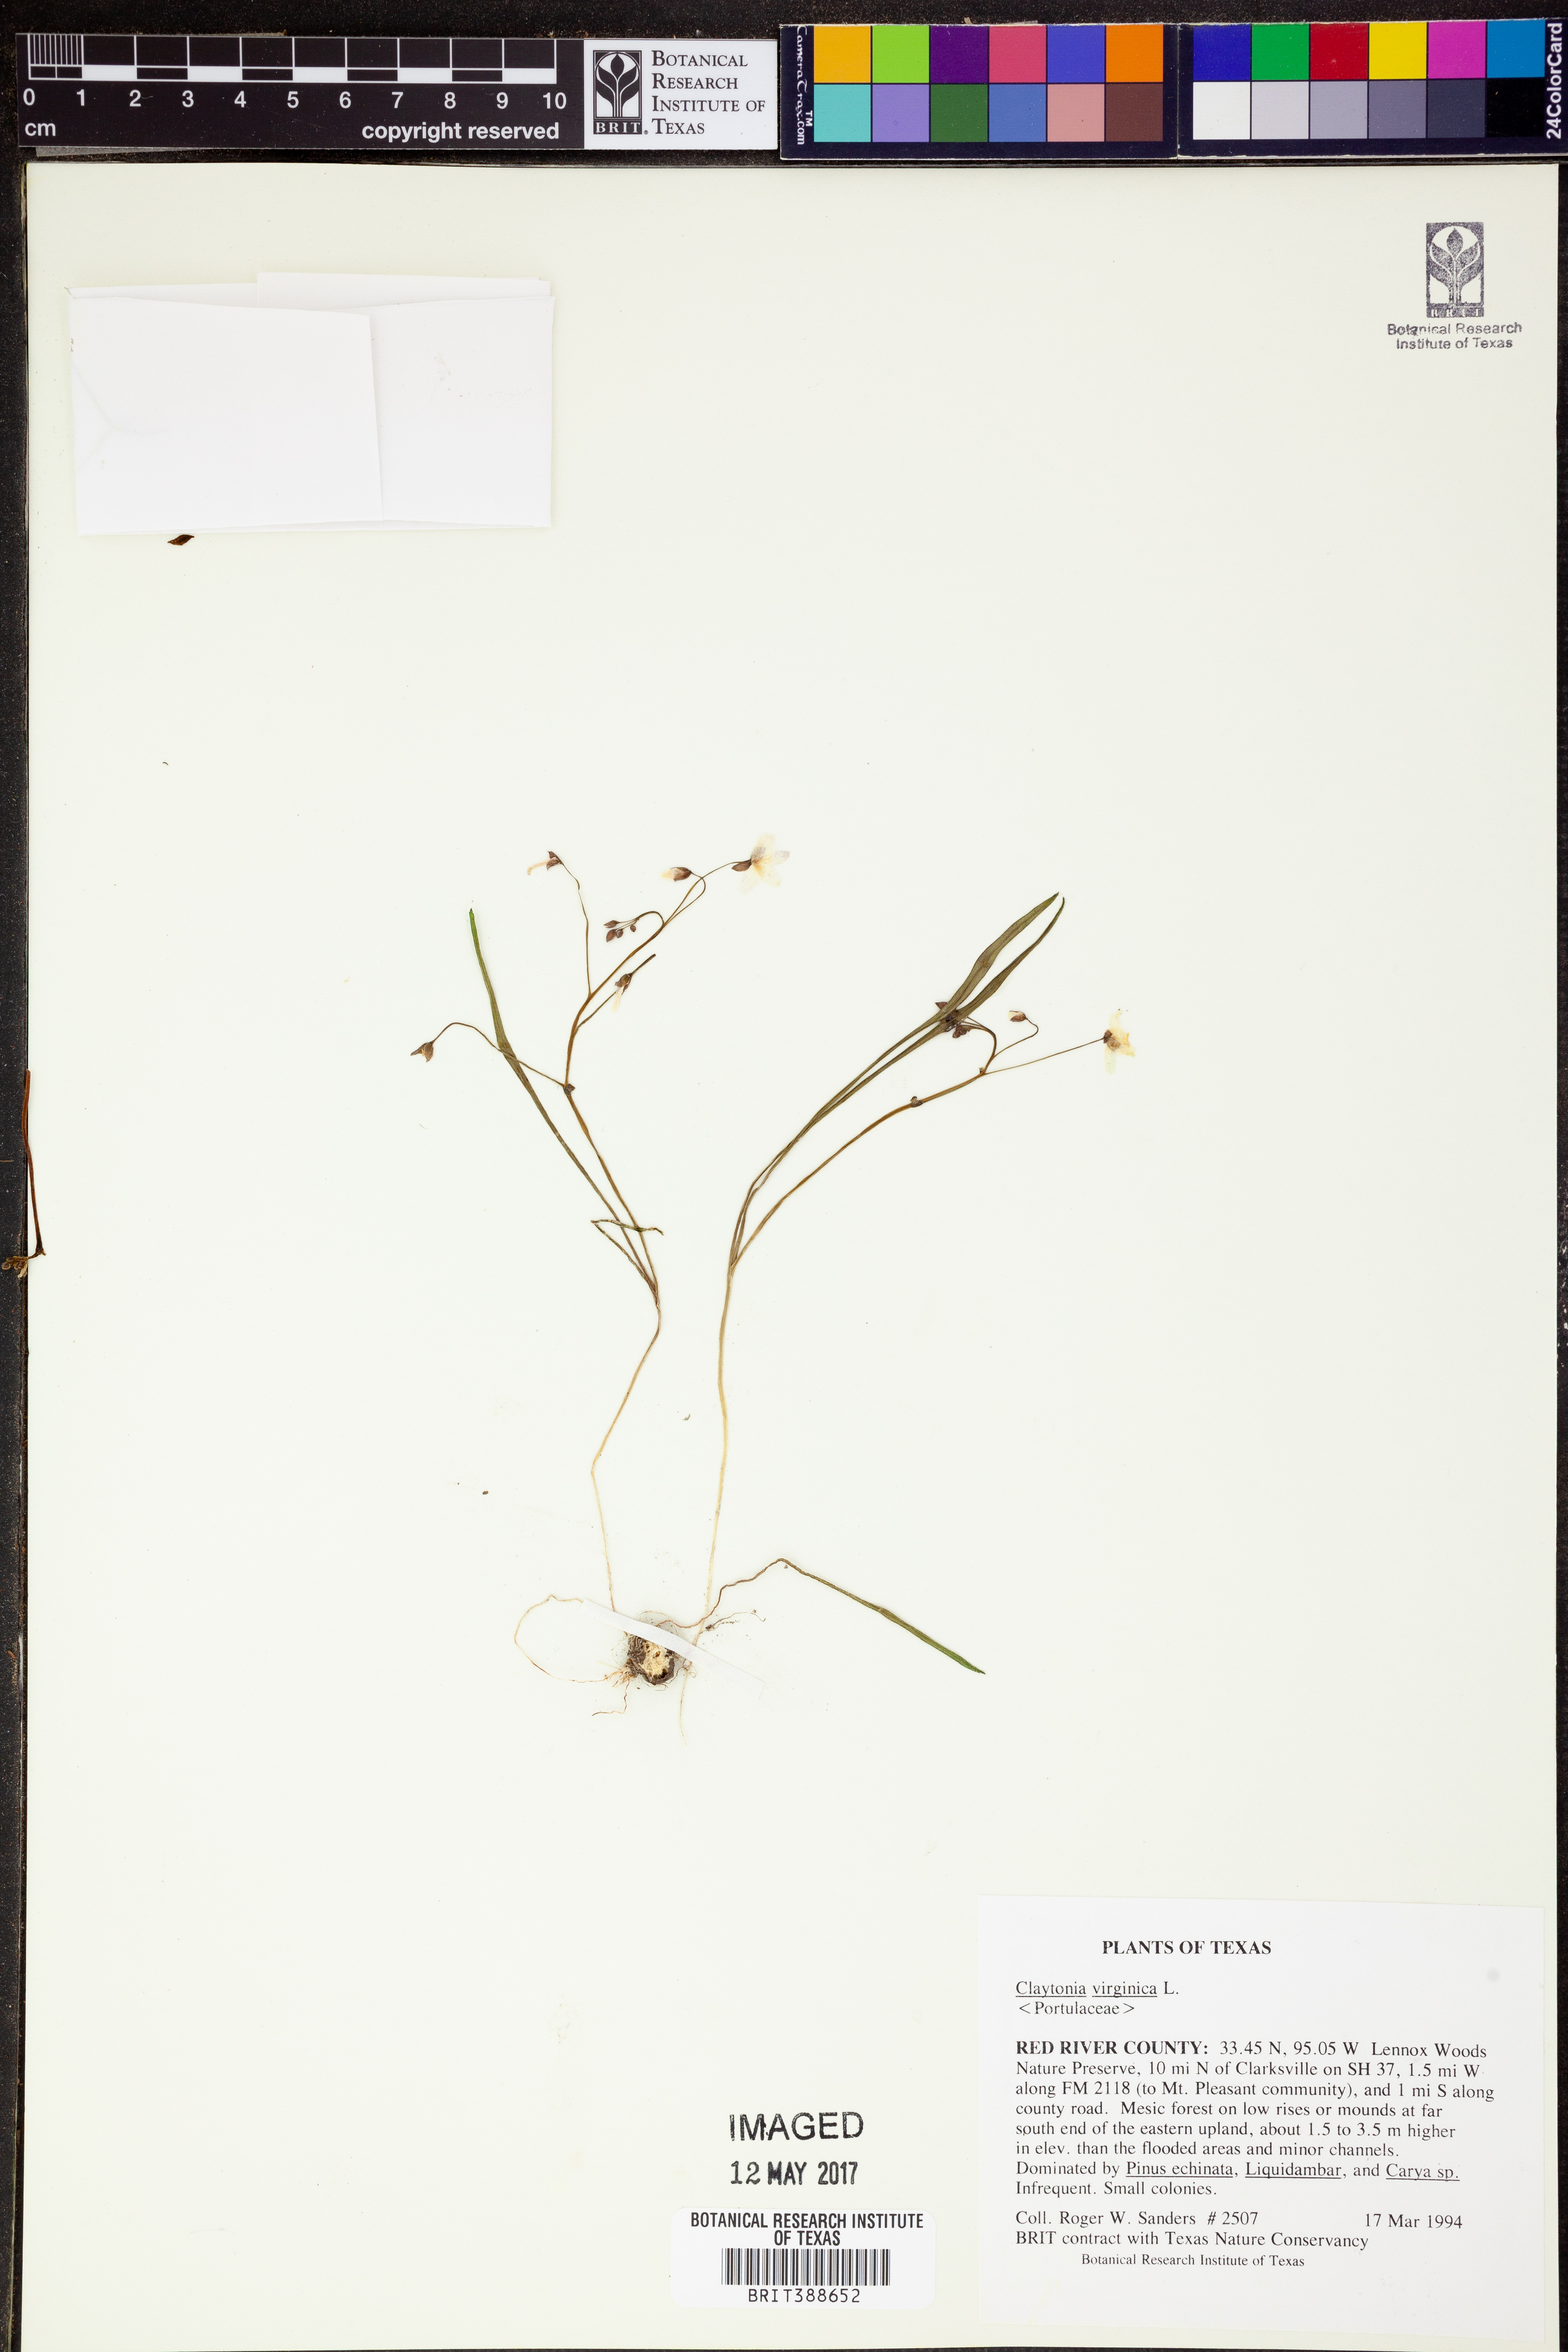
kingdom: Plantae
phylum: Tracheophyta
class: Magnoliopsida
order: Caryophyllales
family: Montiaceae
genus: Claytonia
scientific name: Claytonia virginica
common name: Virginia springbeauty
